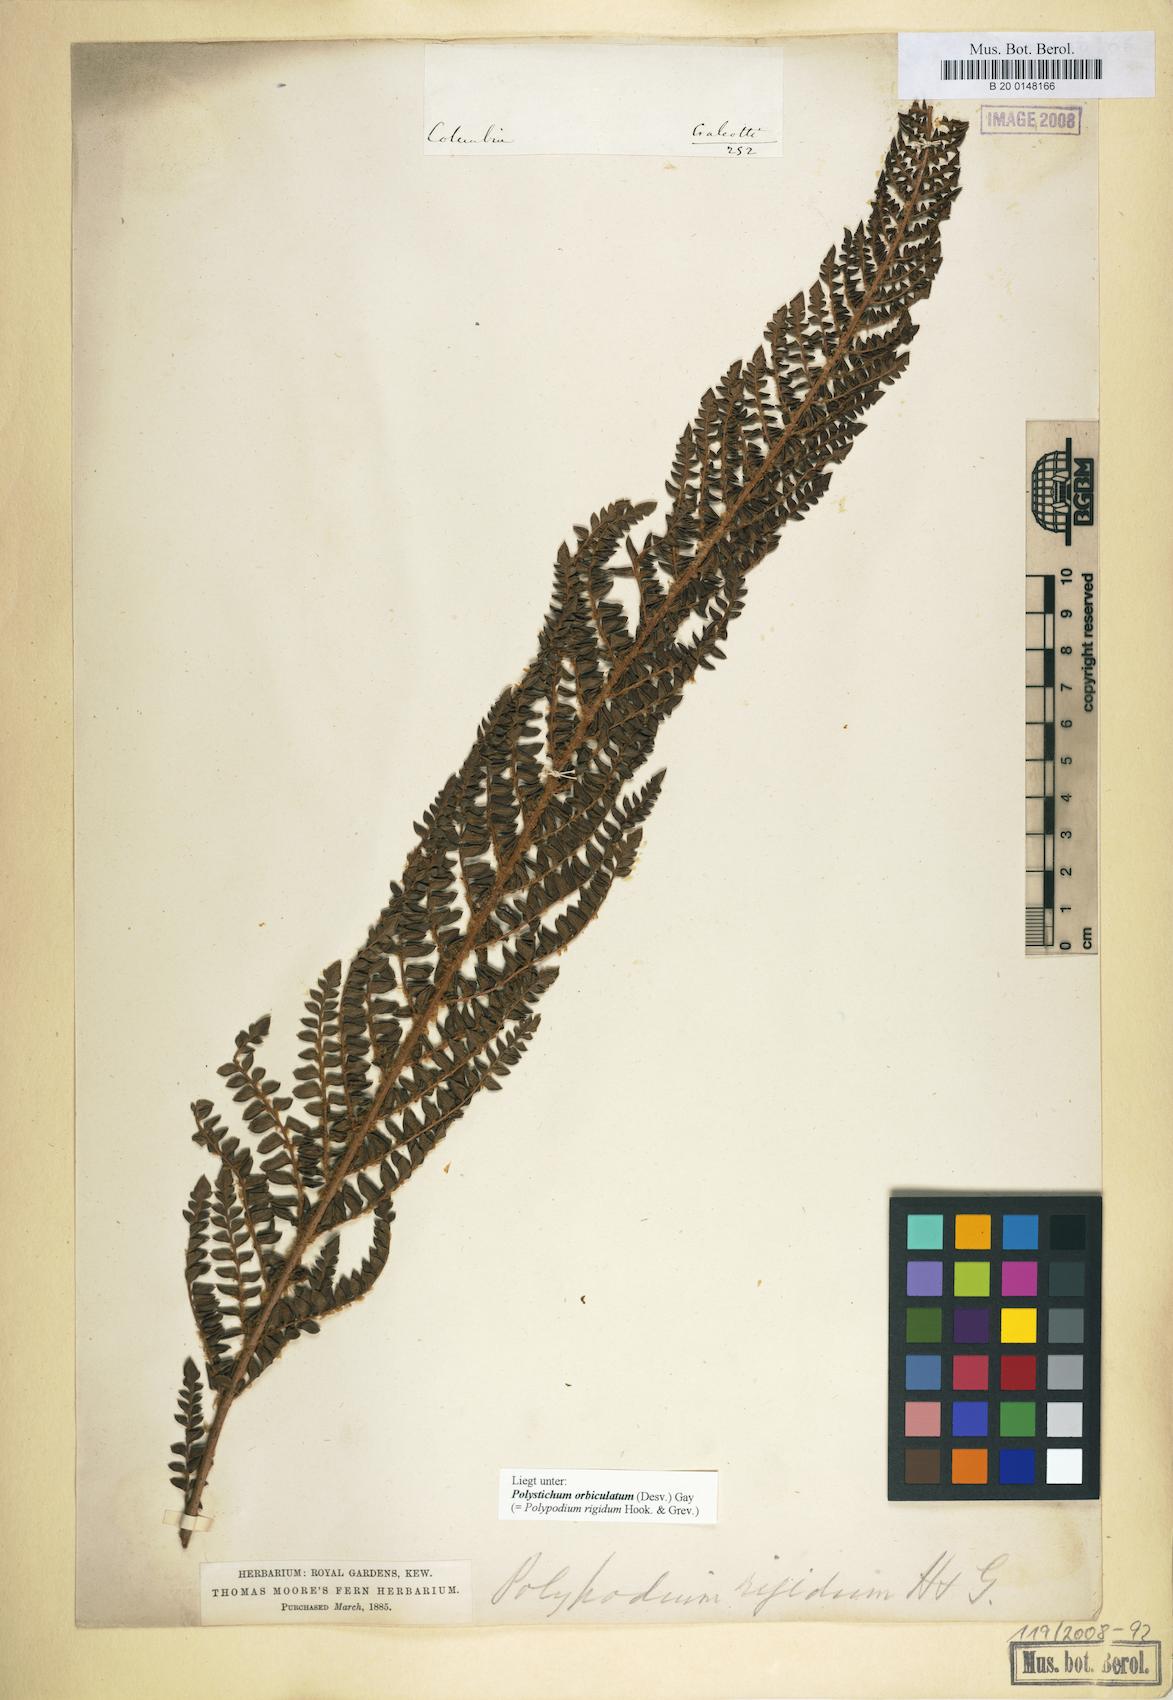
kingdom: Plantae
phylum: Tracheophyta
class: Polypodiopsida
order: Polypodiales
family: Dryopteridaceae
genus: Polystichum
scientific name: Polystichum orbiculatum
